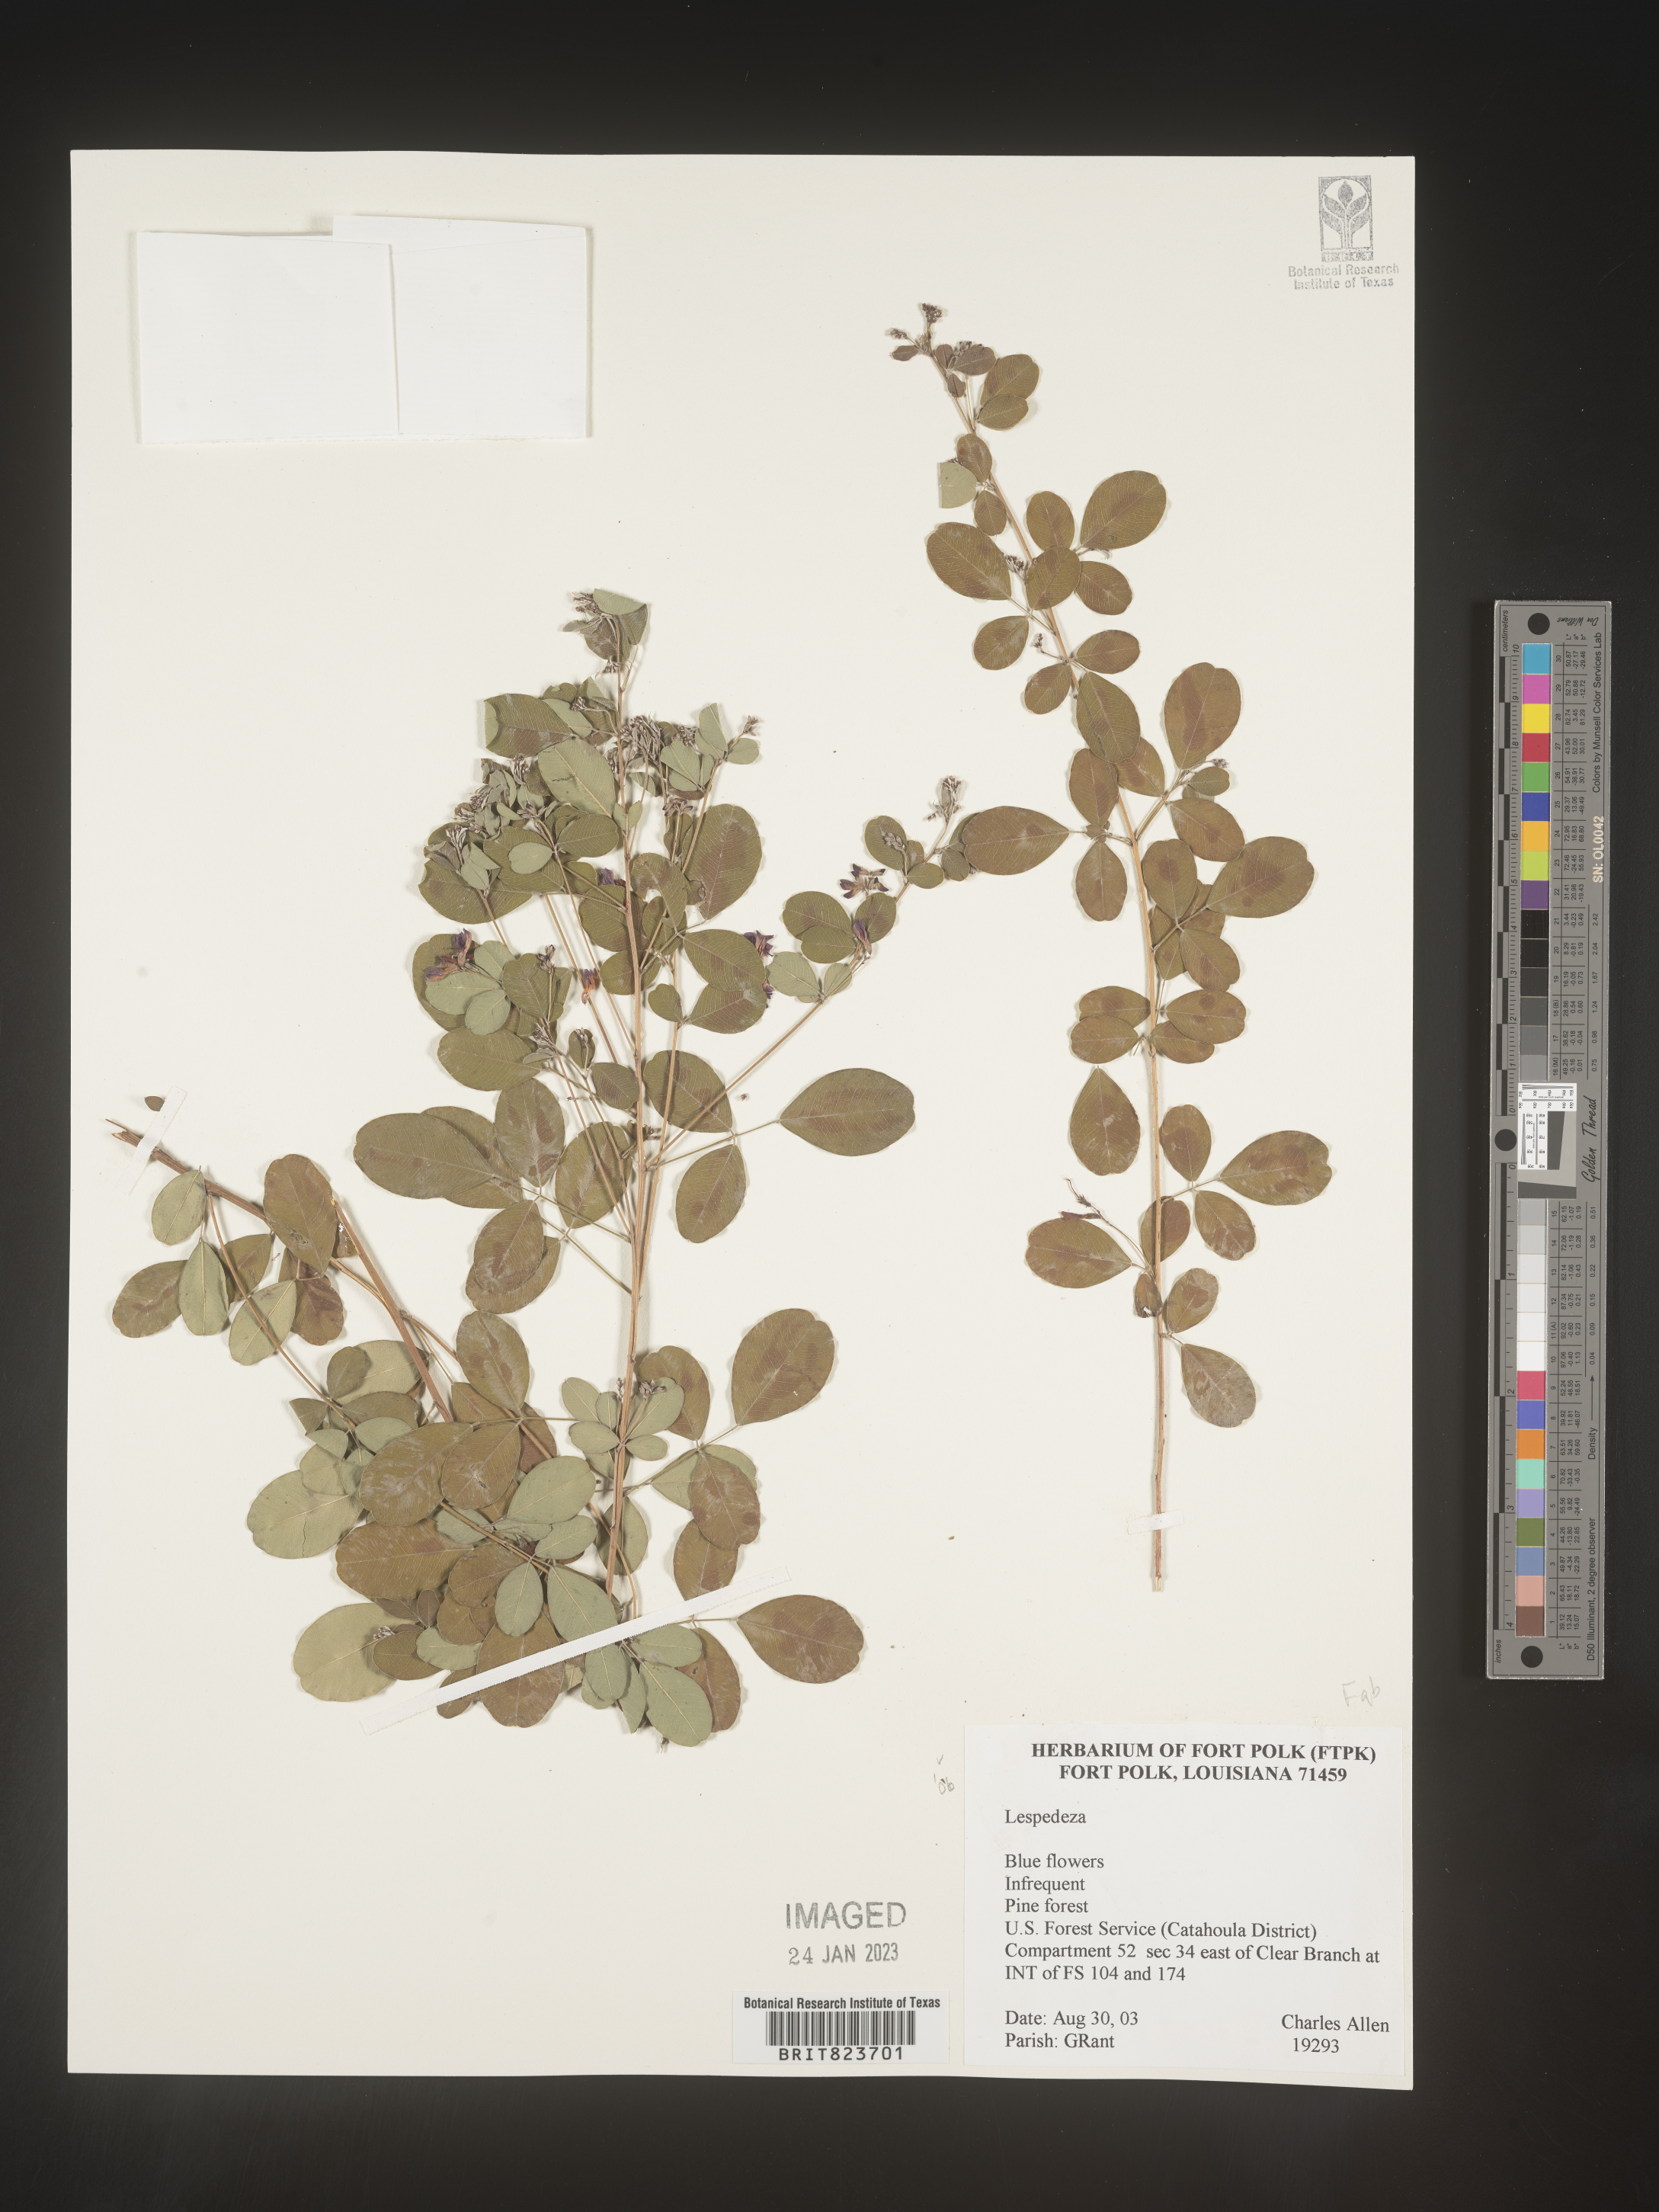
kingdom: Plantae
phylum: Tracheophyta
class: Magnoliopsida
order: Fabales
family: Fabaceae
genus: Lespedeza
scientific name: Lespedeza
